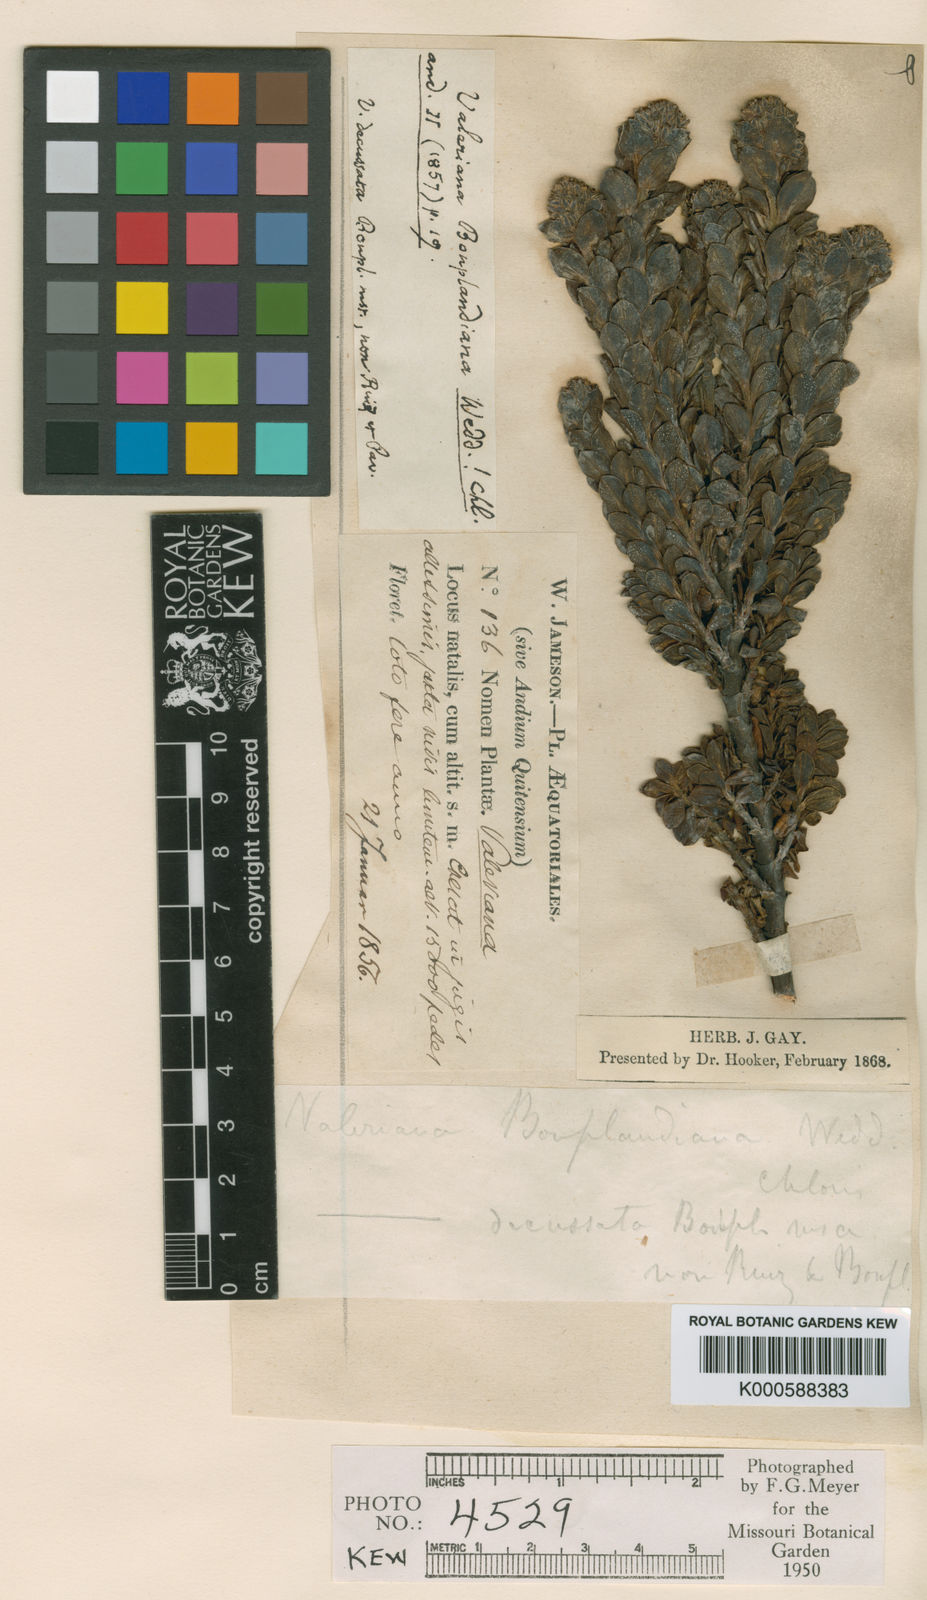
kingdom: Plantae
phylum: Tracheophyta
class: Magnoliopsida
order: Dipsacales
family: Caprifoliaceae
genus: Valeriana
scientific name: Valeriana microphylla
